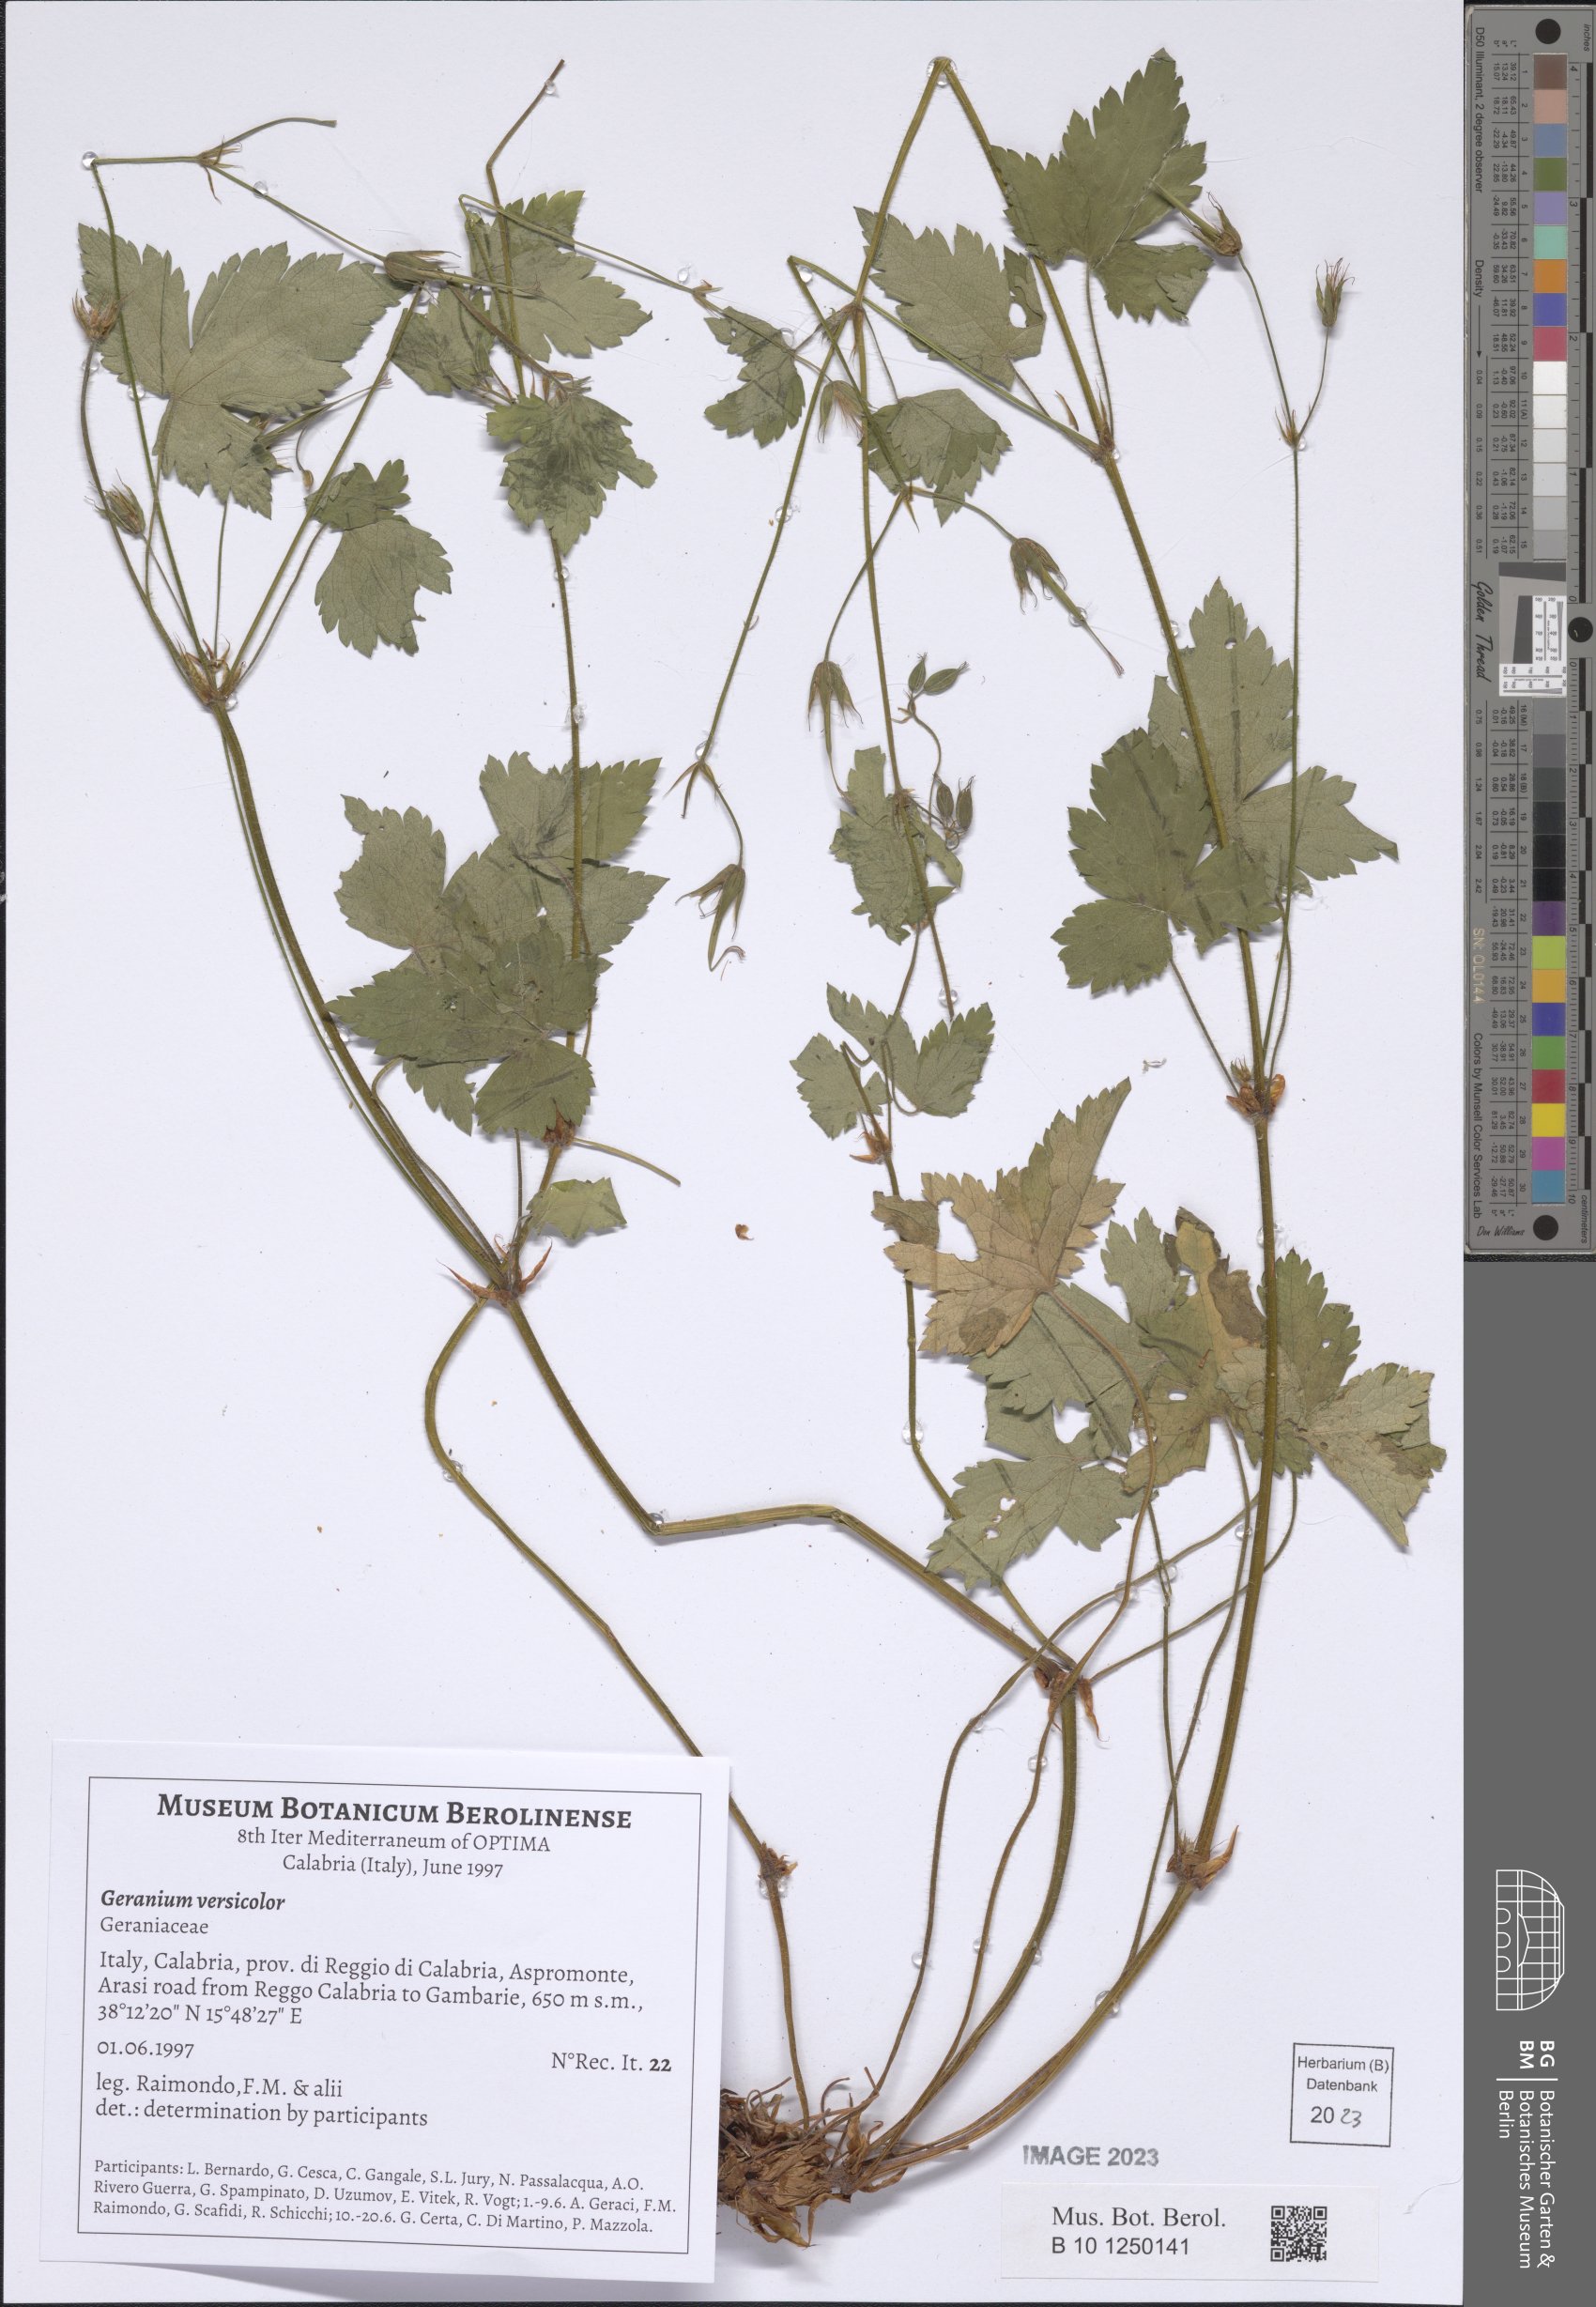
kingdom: Plantae
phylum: Tracheophyta
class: Magnoliopsida
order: Geraniales
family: Geraniaceae
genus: Geranium
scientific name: Geranium versicolor
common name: Pencilled crane's-bill
